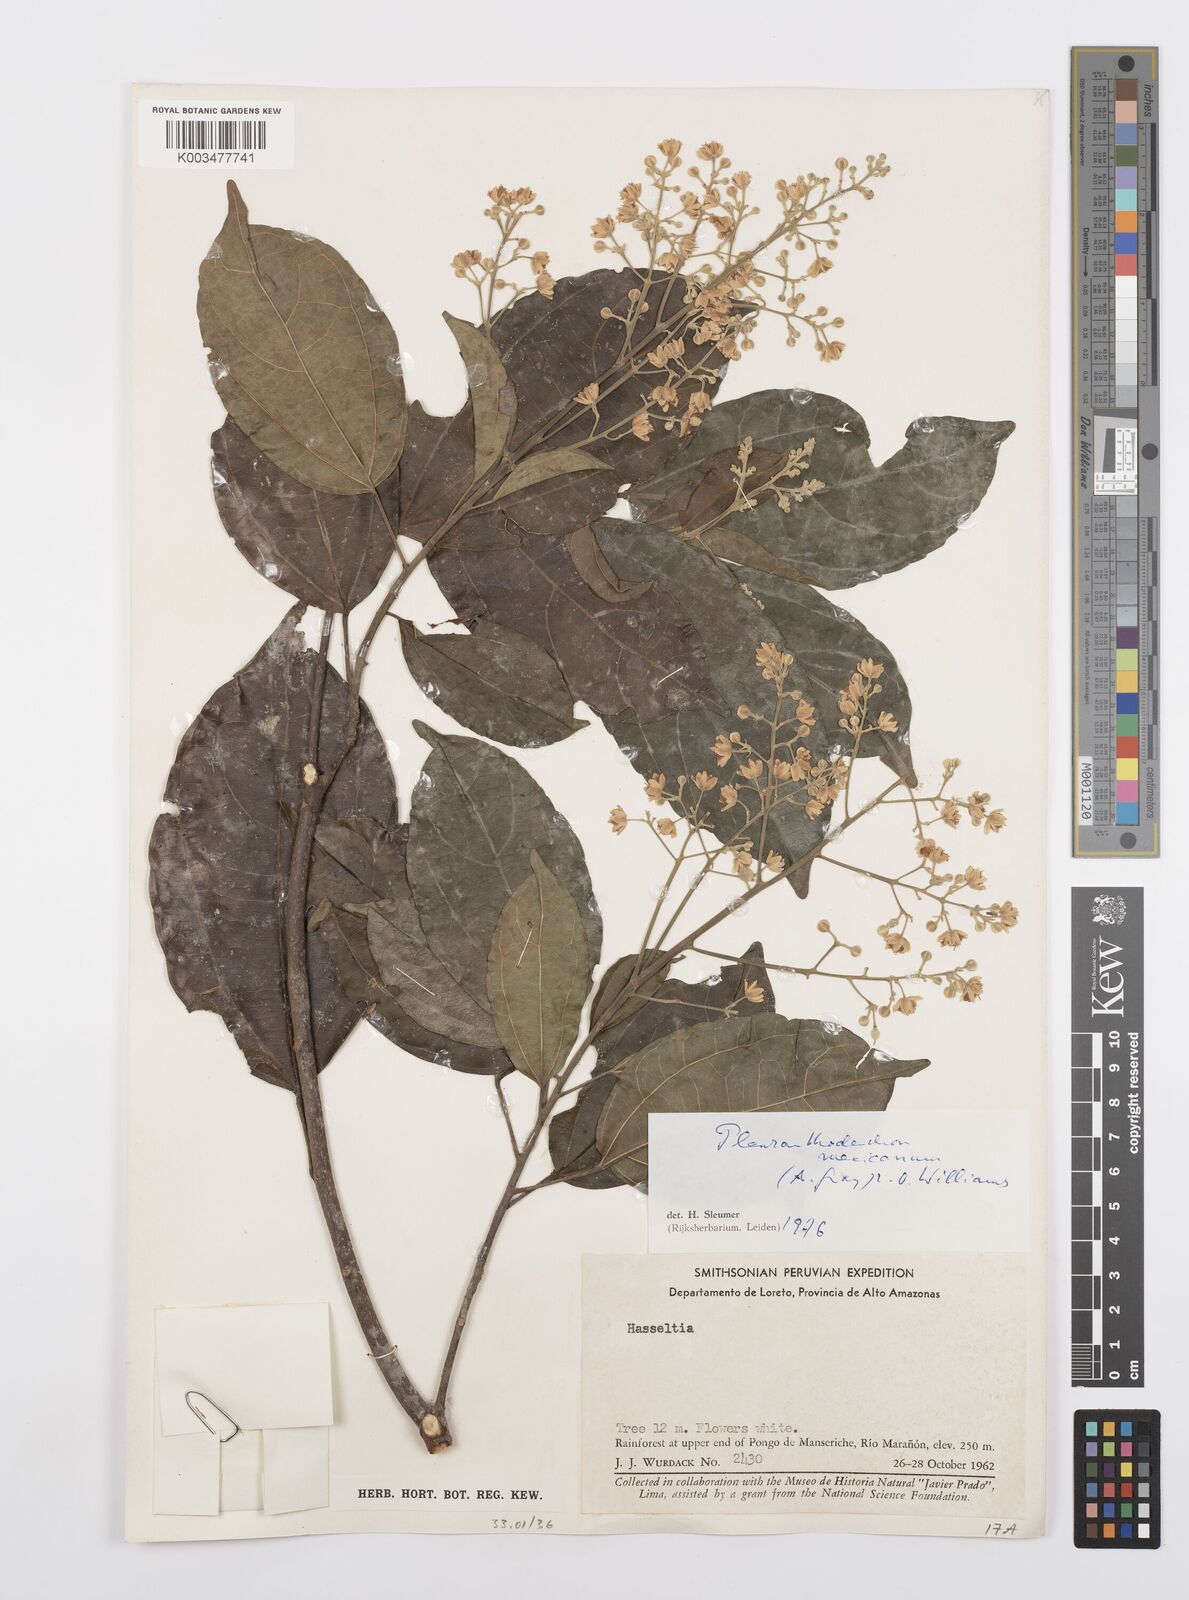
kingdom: Plantae
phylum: Tracheophyta
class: Magnoliopsida
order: Malpighiales
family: Salicaceae
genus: Pleuranthodendron
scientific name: Pleuranthodendron lindenii
